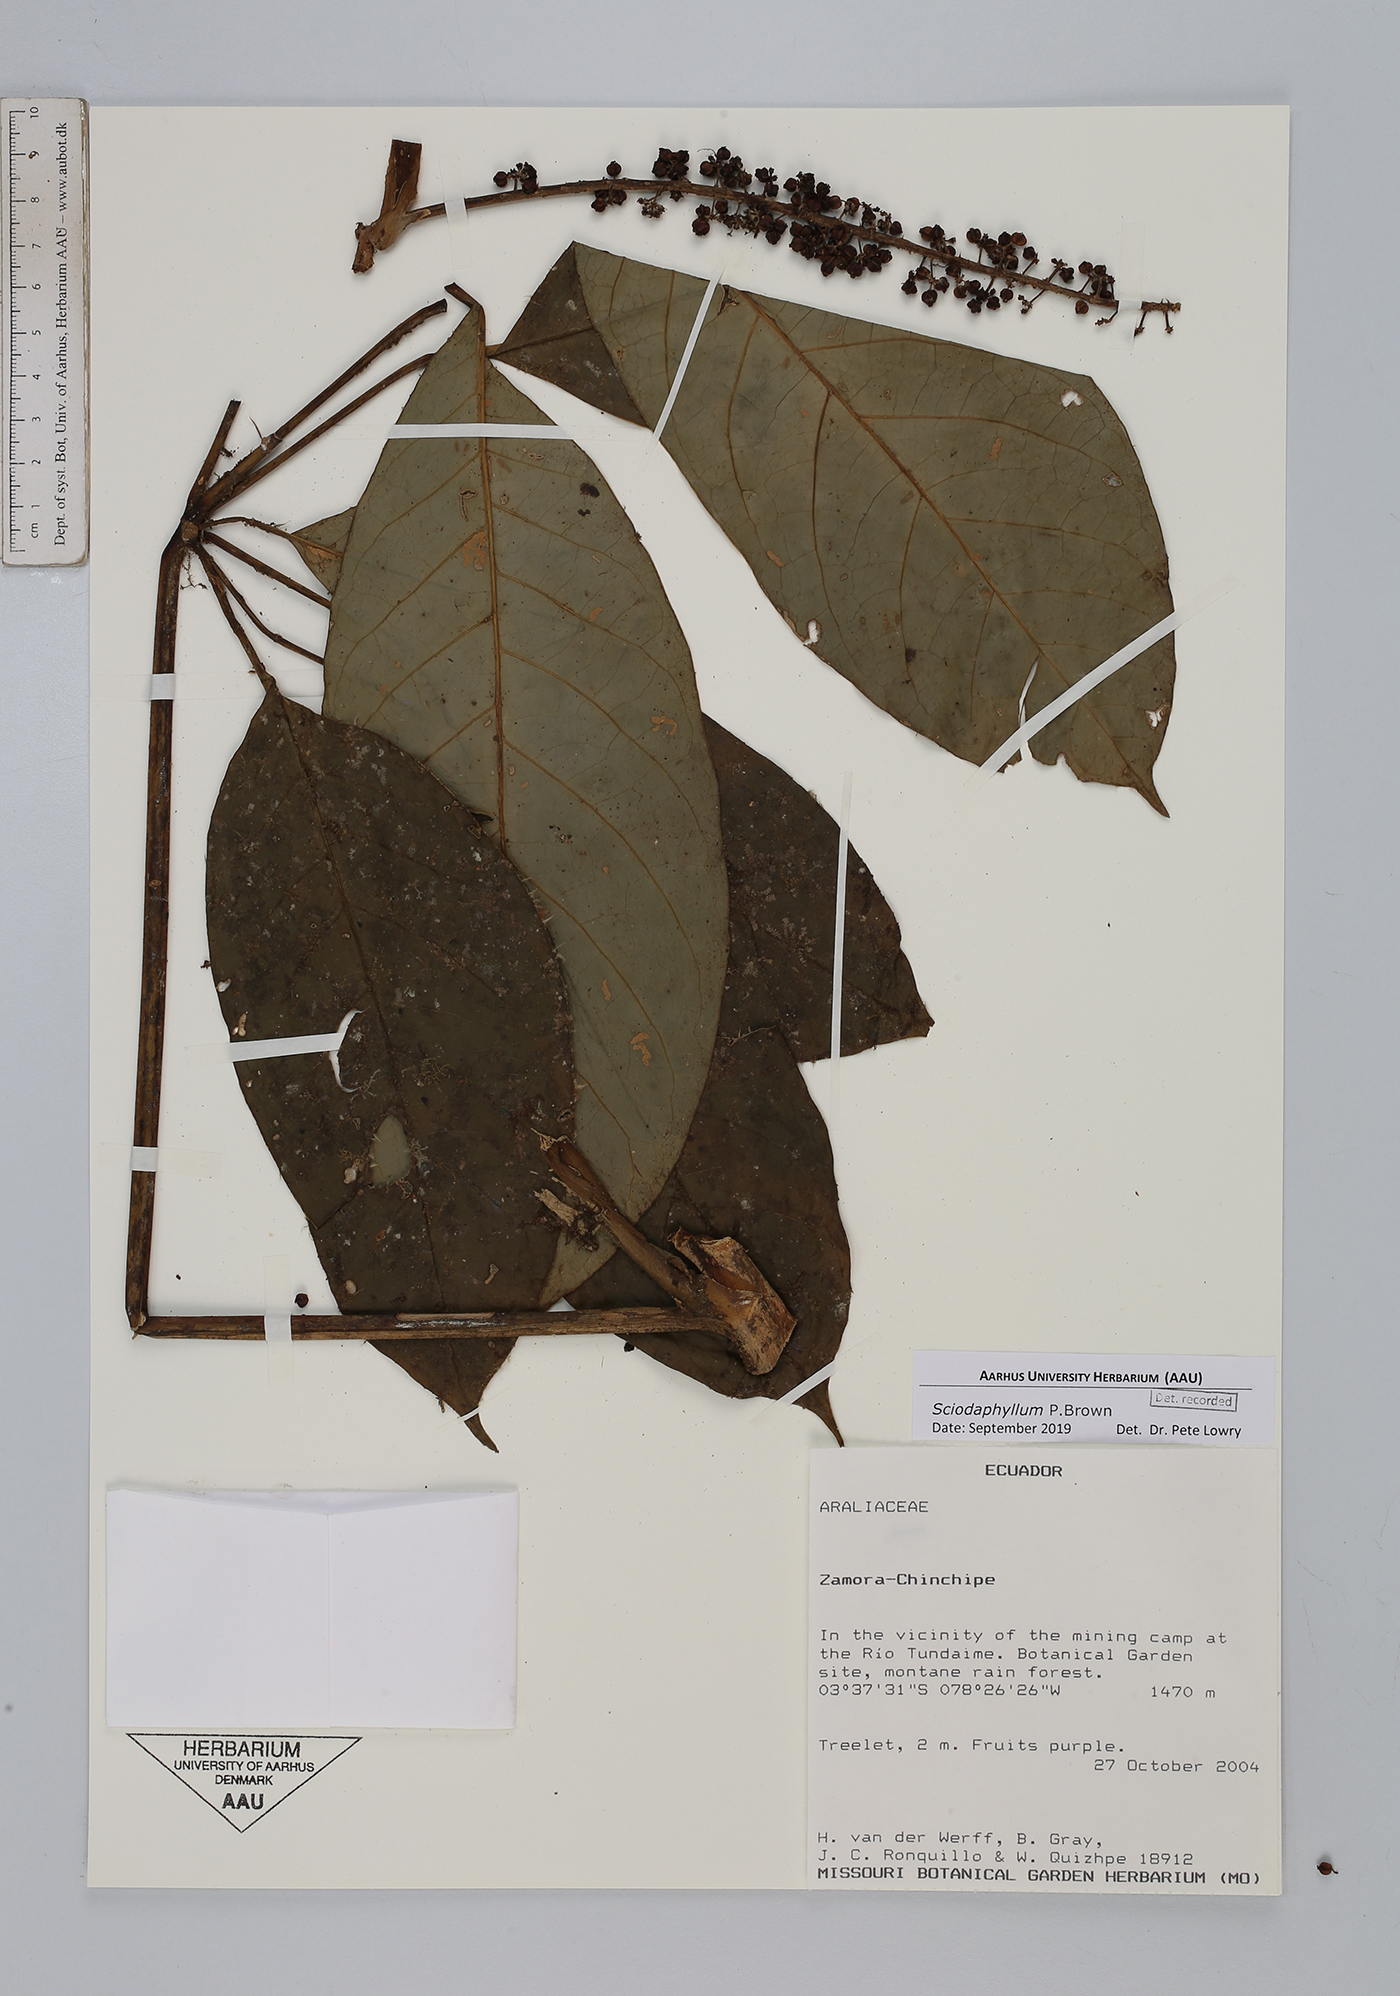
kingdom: Plantae
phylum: Tracheophyta
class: Magnoliopsida
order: Apiales
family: Araliaceae
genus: Sciodaphyllum
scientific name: Sciodaphyllum
